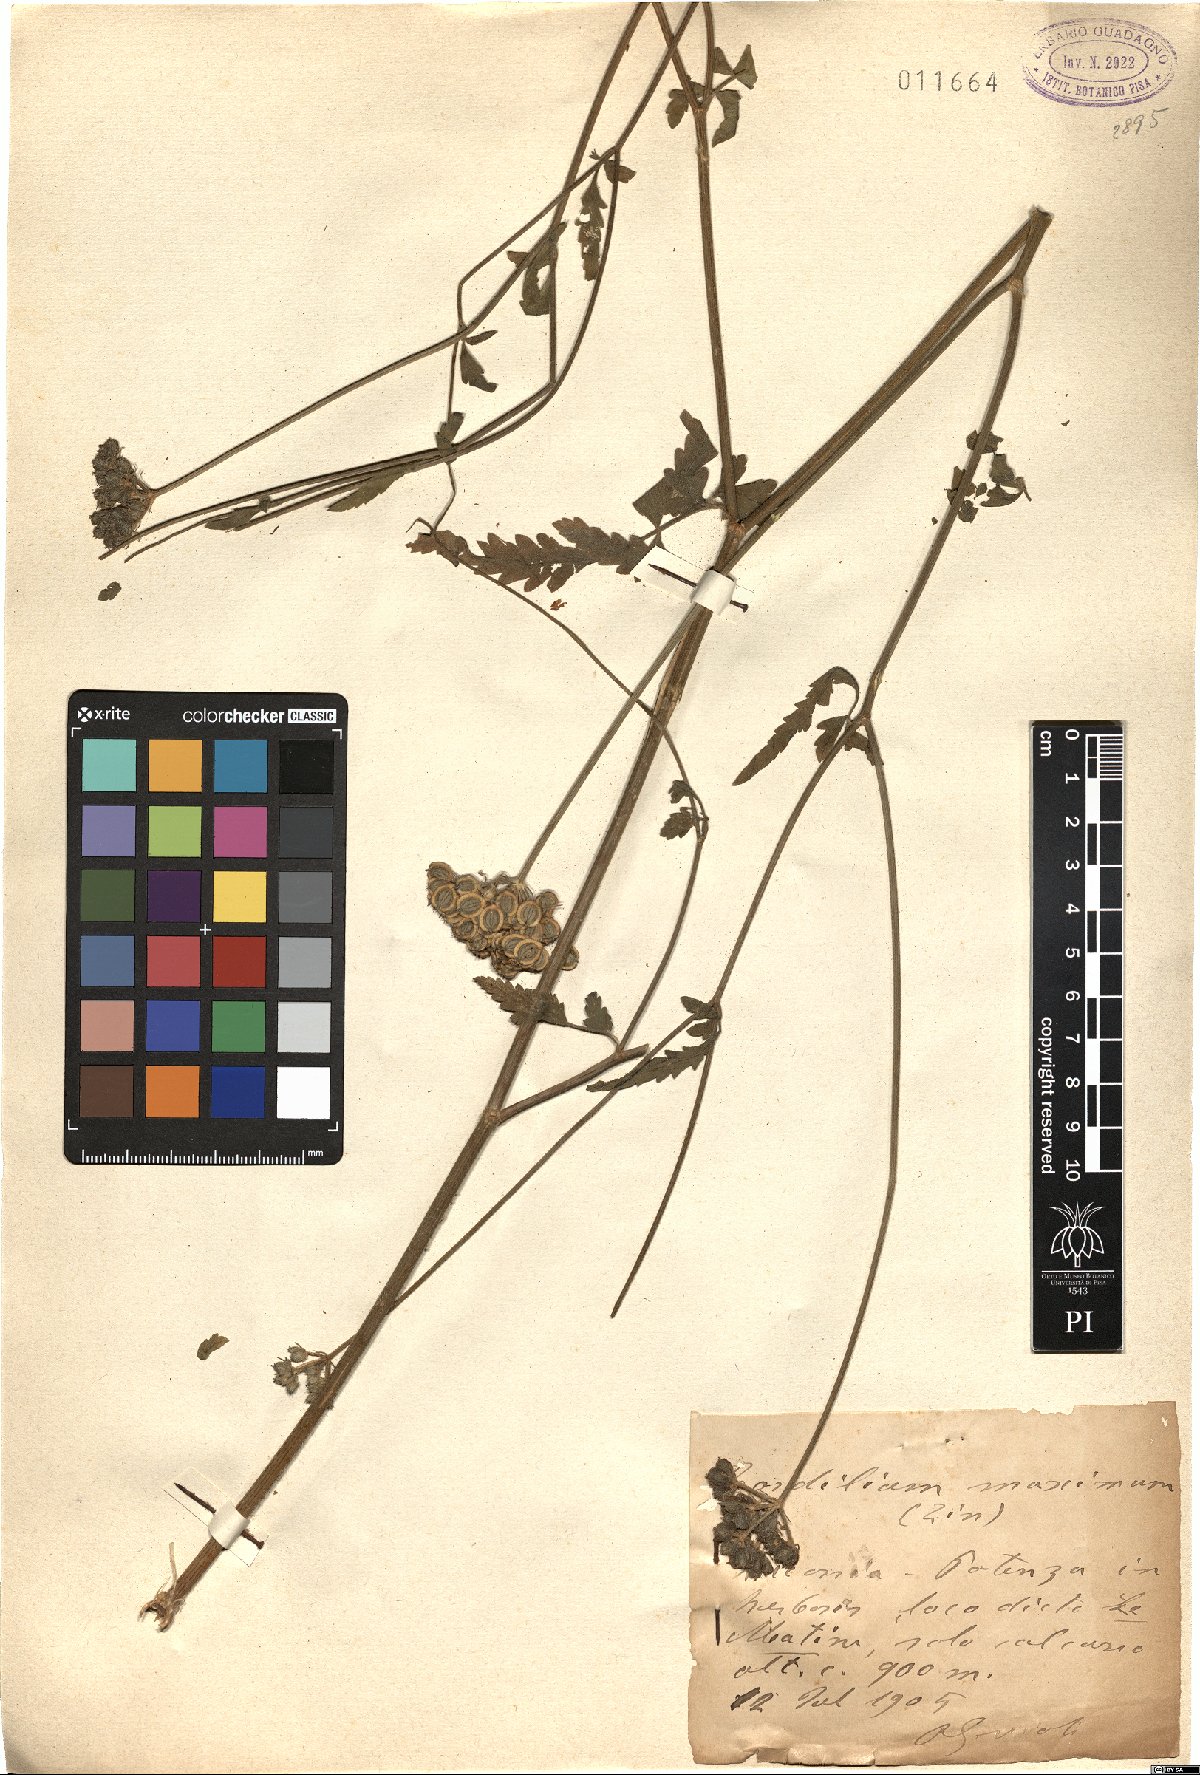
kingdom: Plantae
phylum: Tracheophyta
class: Magnoliopsida
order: Apiales
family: Apiaceae
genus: Tordylium
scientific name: Tordylium maximum
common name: Hartwort
